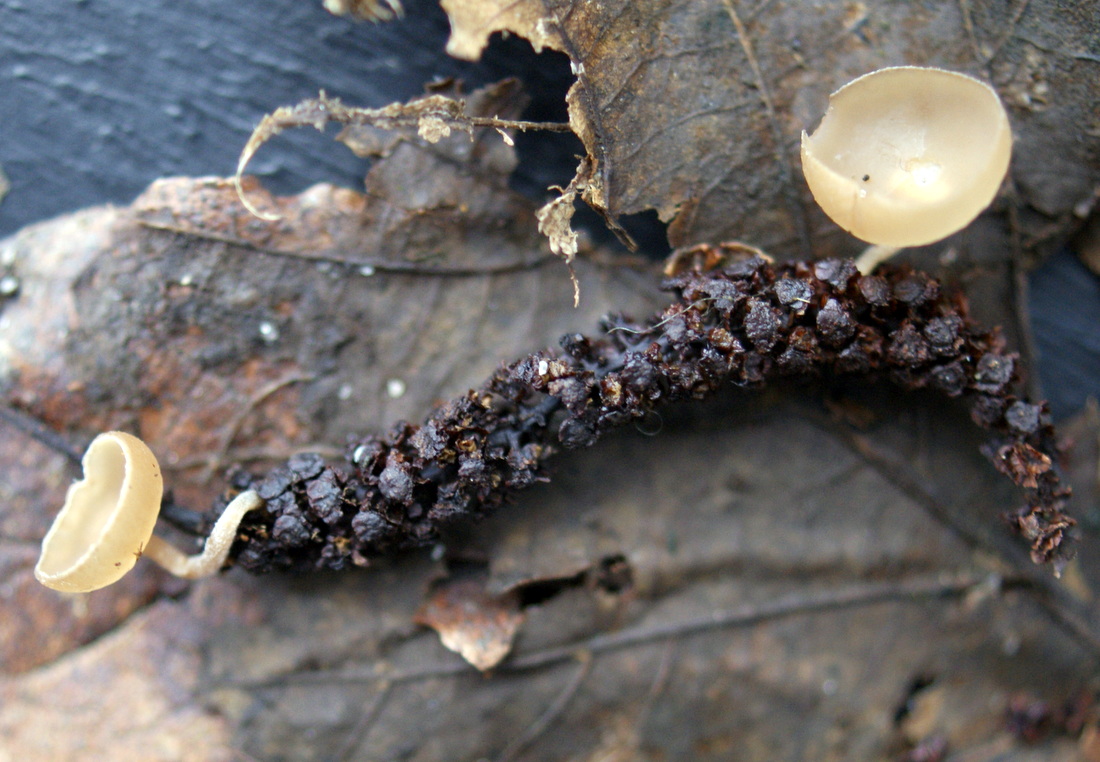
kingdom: Fungi
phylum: Ascomycota
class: Leotiomycetes
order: Helotiales
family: Sclerotiniaceae
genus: Ciboria
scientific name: Ciboria amentacea
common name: ellerakle-knoldskive
